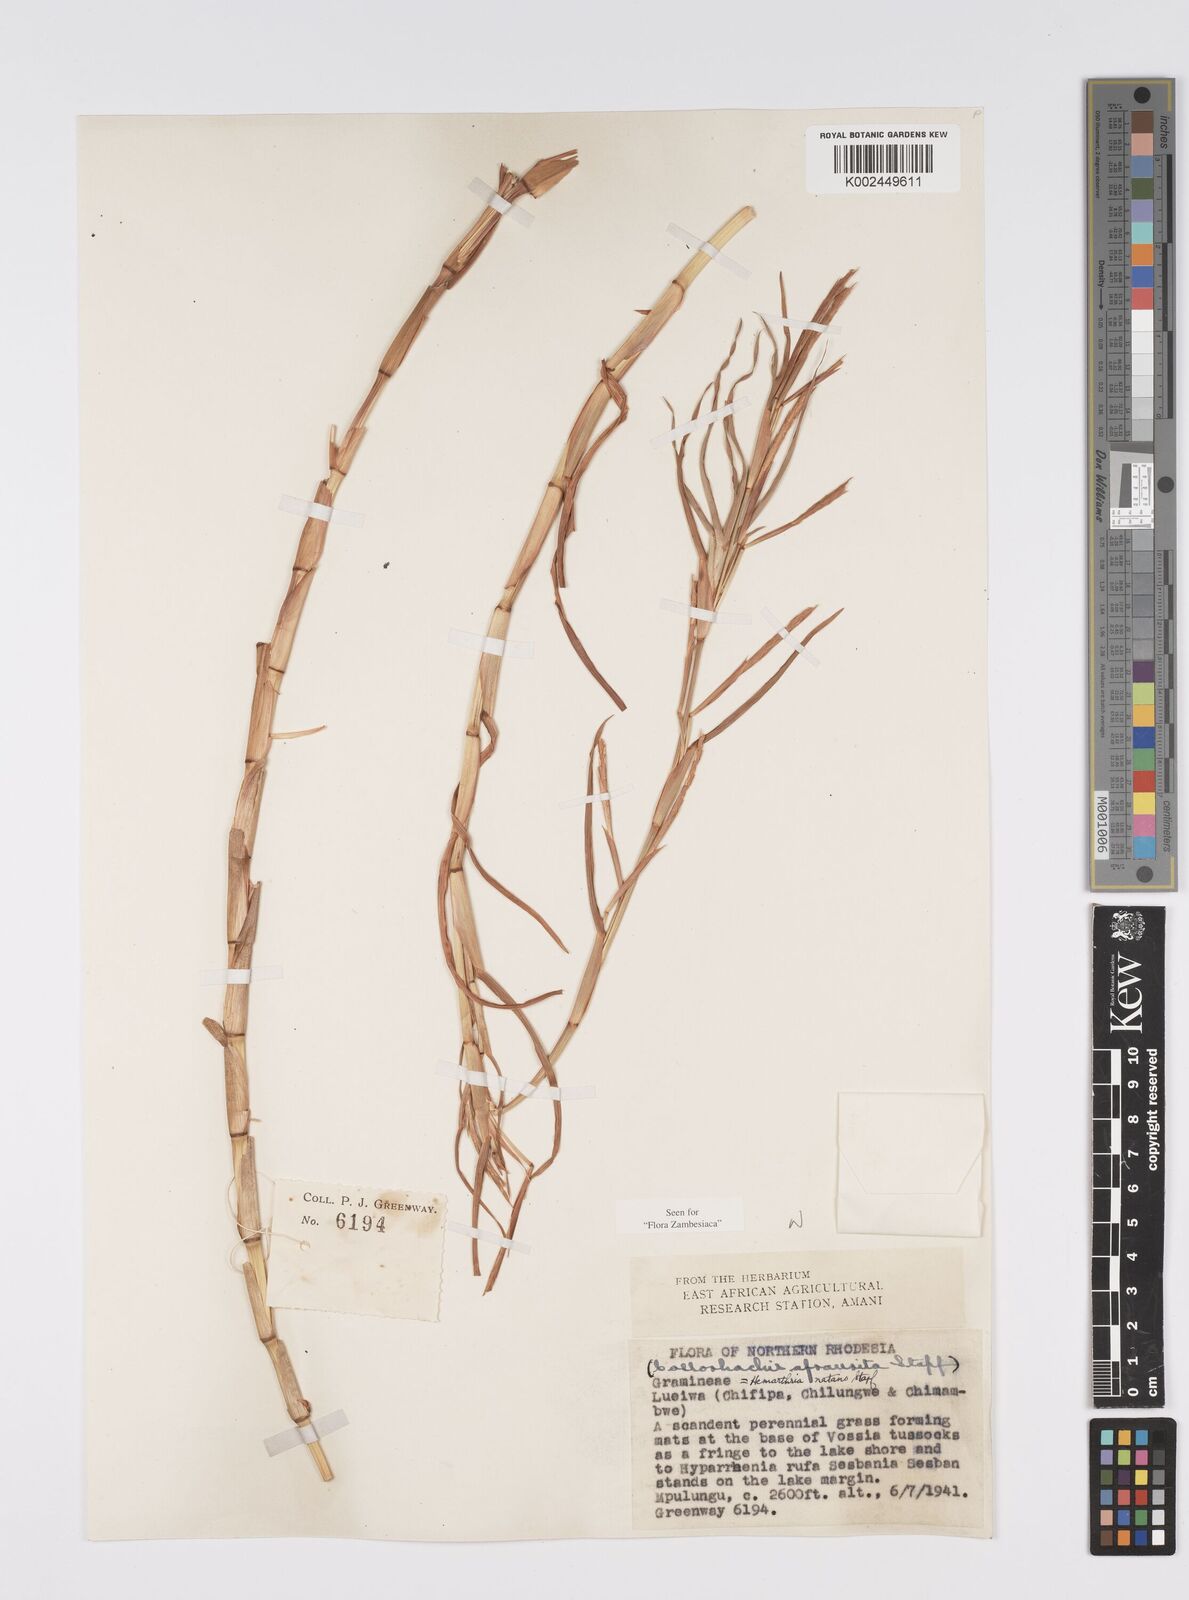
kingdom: Plantae
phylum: Tracheophyta
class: Liliopsida
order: Poales
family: Poaceae
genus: Hemarthria
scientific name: Hemarthria natans
